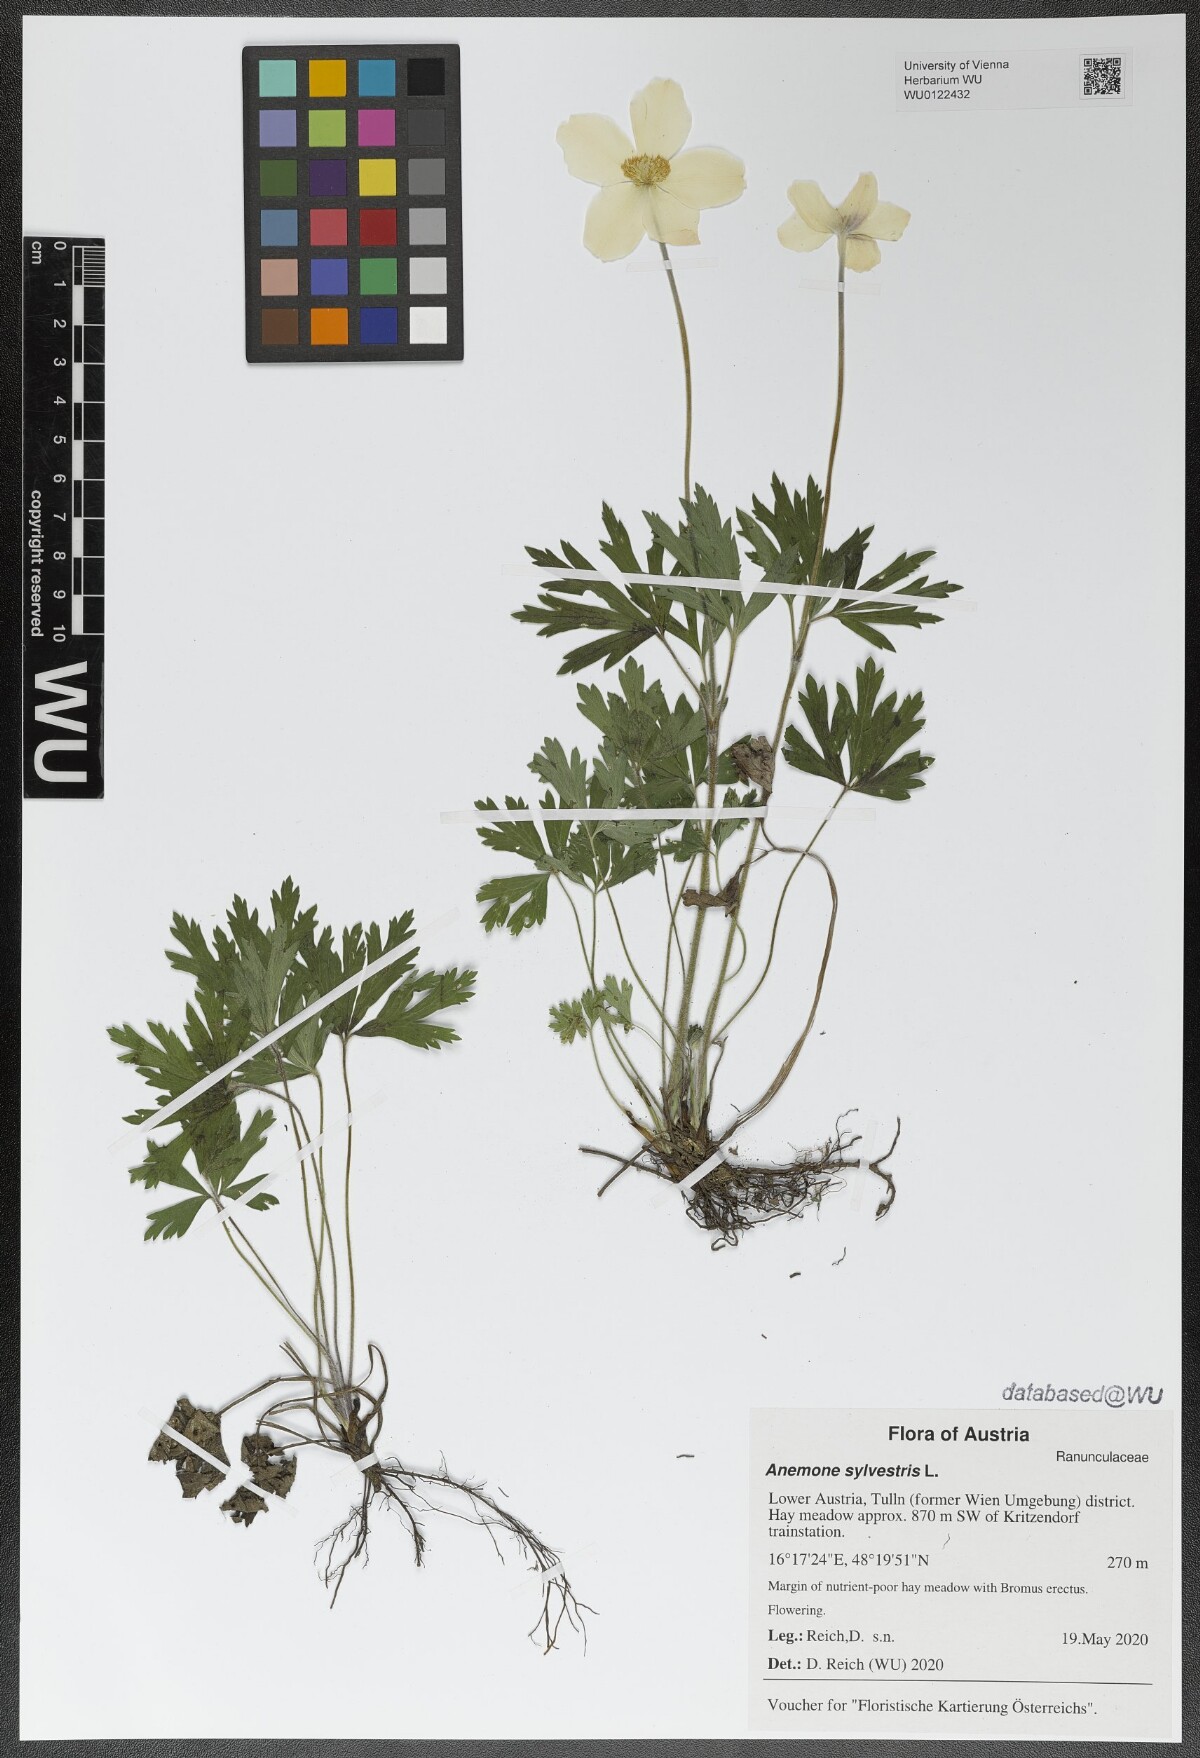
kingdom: Plantae
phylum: Tracheophyta
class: Magnoliopsida
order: Ranunculales
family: Ranunculaceae
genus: Anemone
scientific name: Anemone sylvestris
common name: Snowdrop anemone
